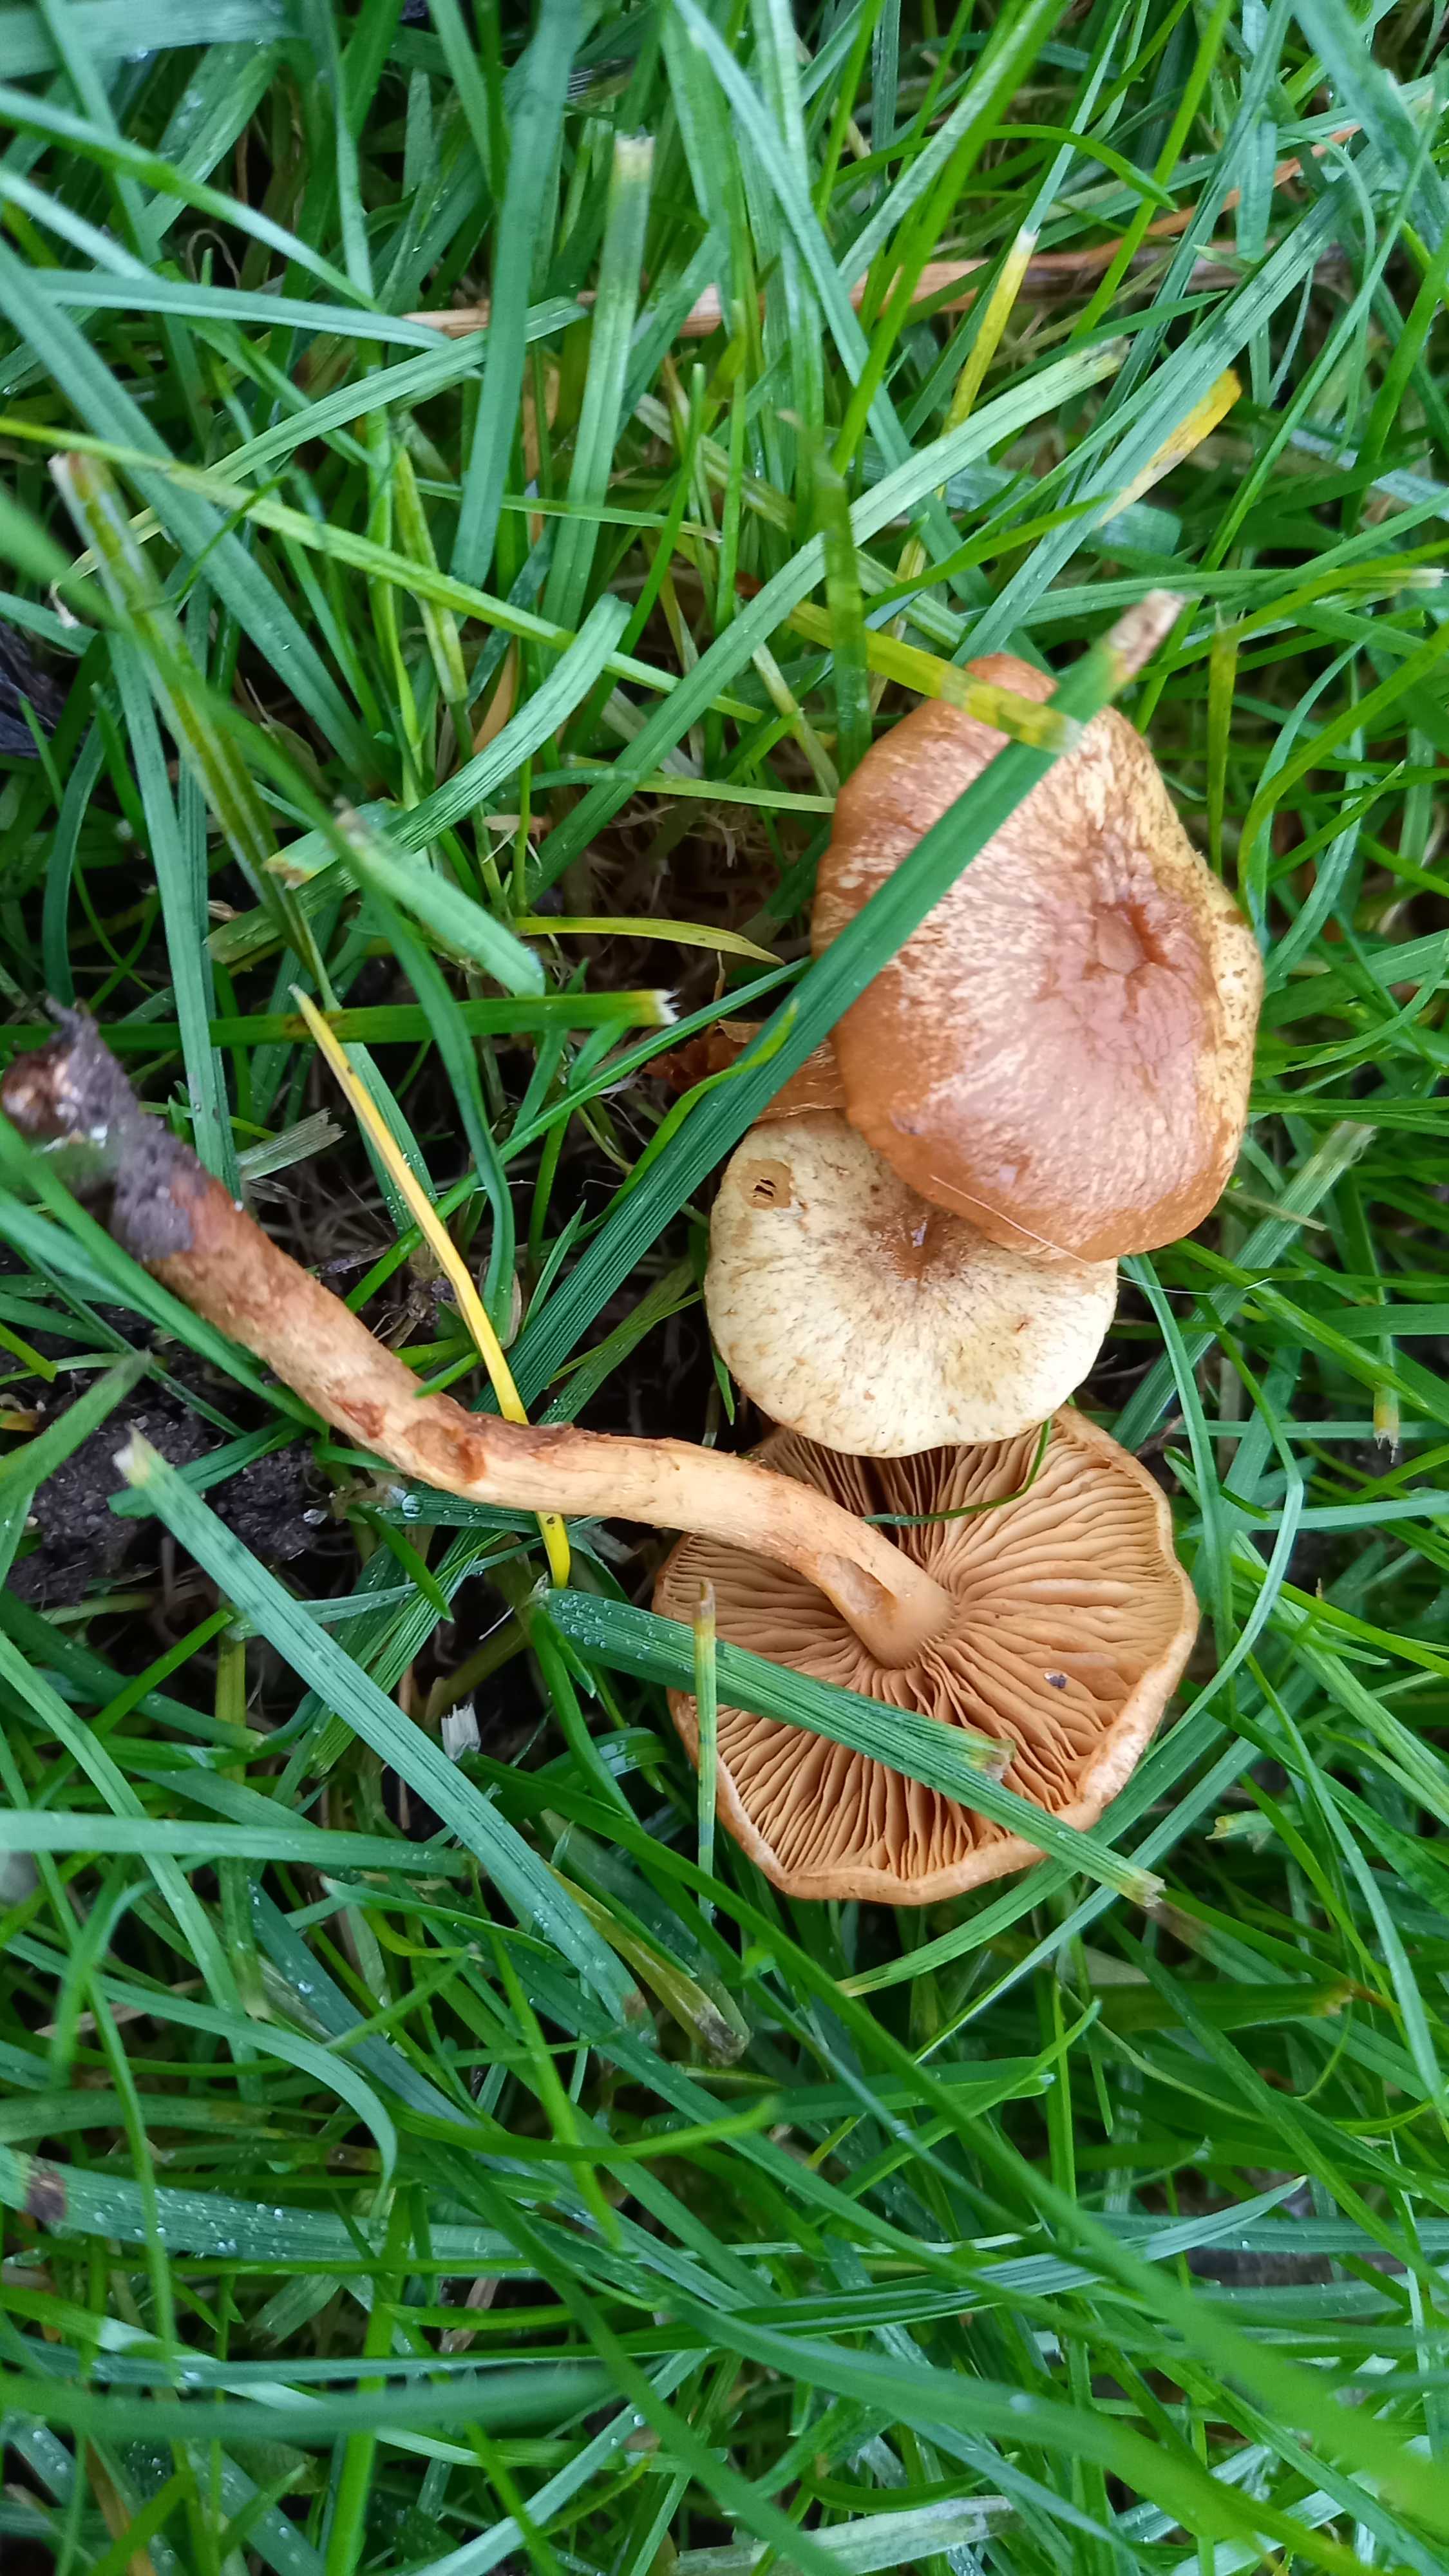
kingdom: Fungi
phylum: Basidiomycota
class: Agaricomycetes
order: Agaricales
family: Strophariaceae
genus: Pholiota
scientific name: Pholiota gummosa
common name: grøngul skælhat
